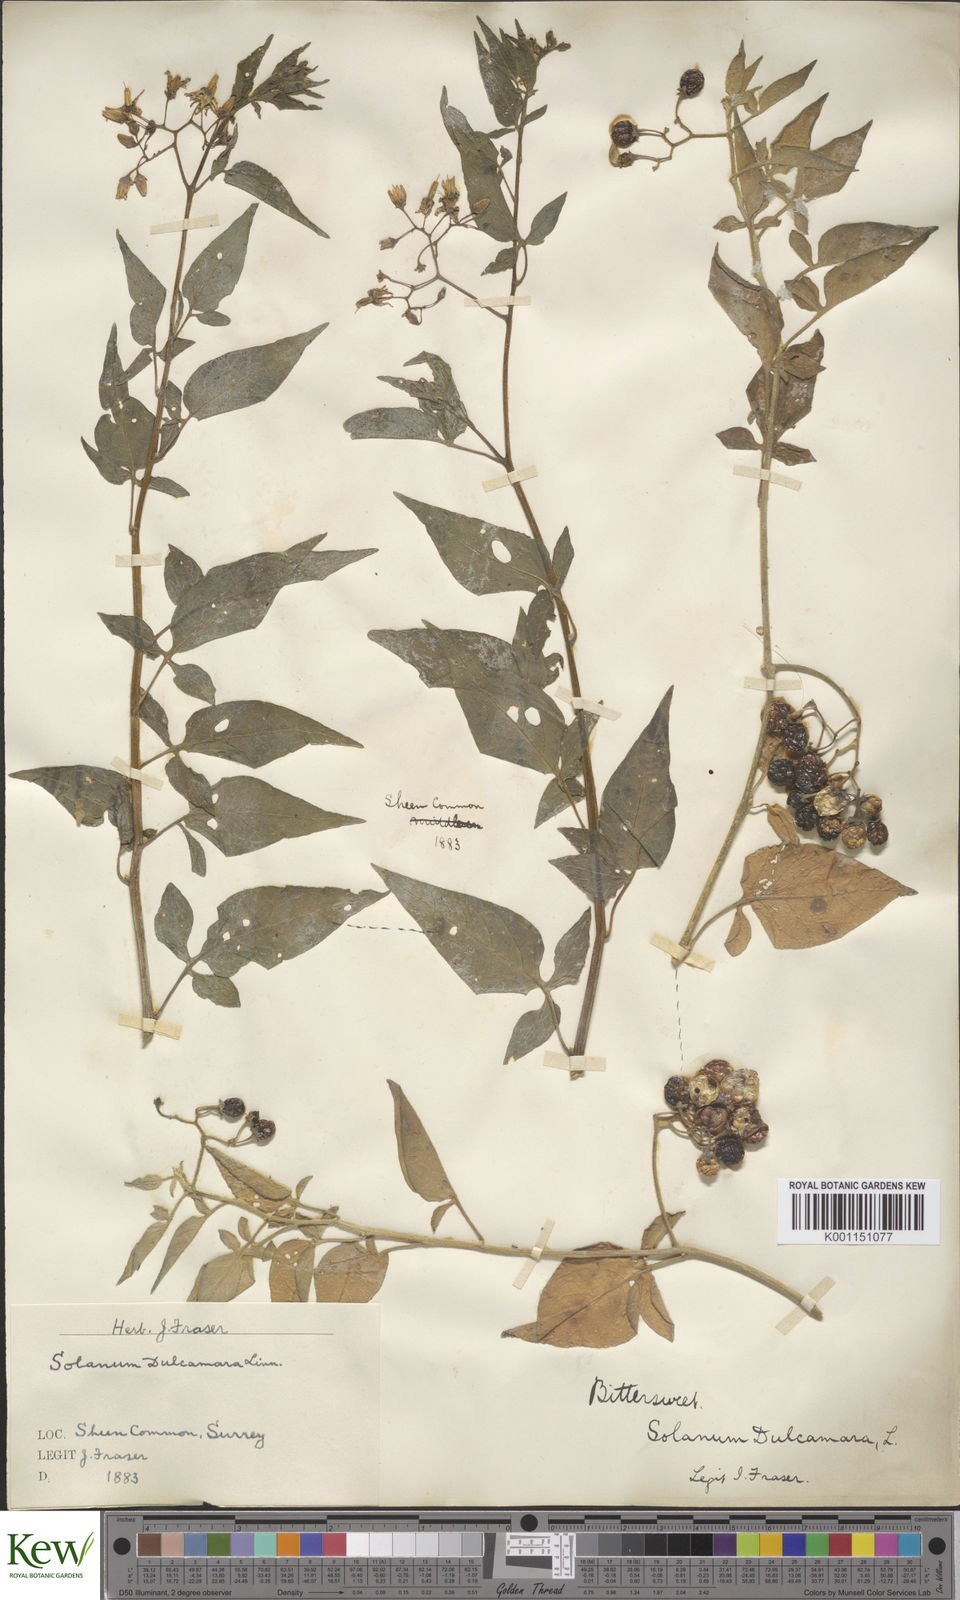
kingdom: Plantae
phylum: Tracheophyta
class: Magnoliopsida
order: Solanales
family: Solanaceae
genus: Solanum
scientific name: Solanum dulcamara
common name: Climbing nightshade
